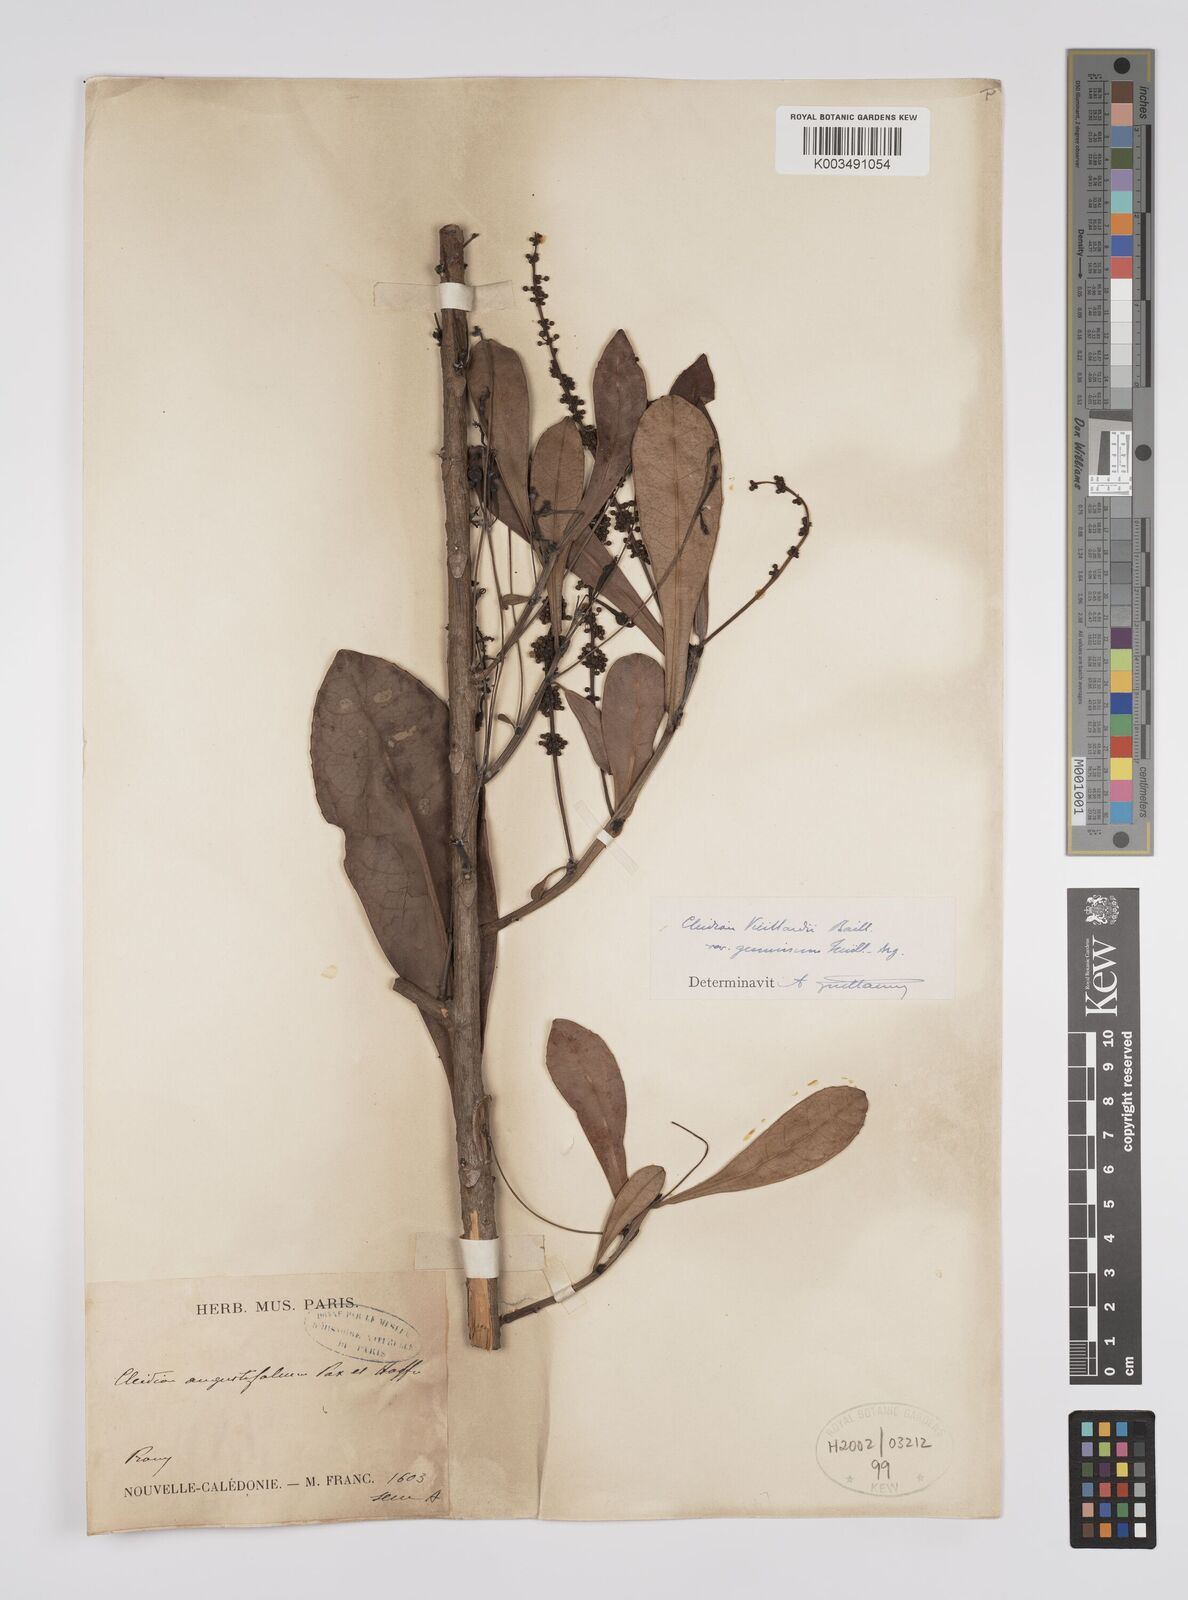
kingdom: Plantae
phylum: Tracheophyta
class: Magnoliopsida
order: Malpighiales
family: Euphorbiaceae
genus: Cleidion
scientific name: Cleidion vieillardii
